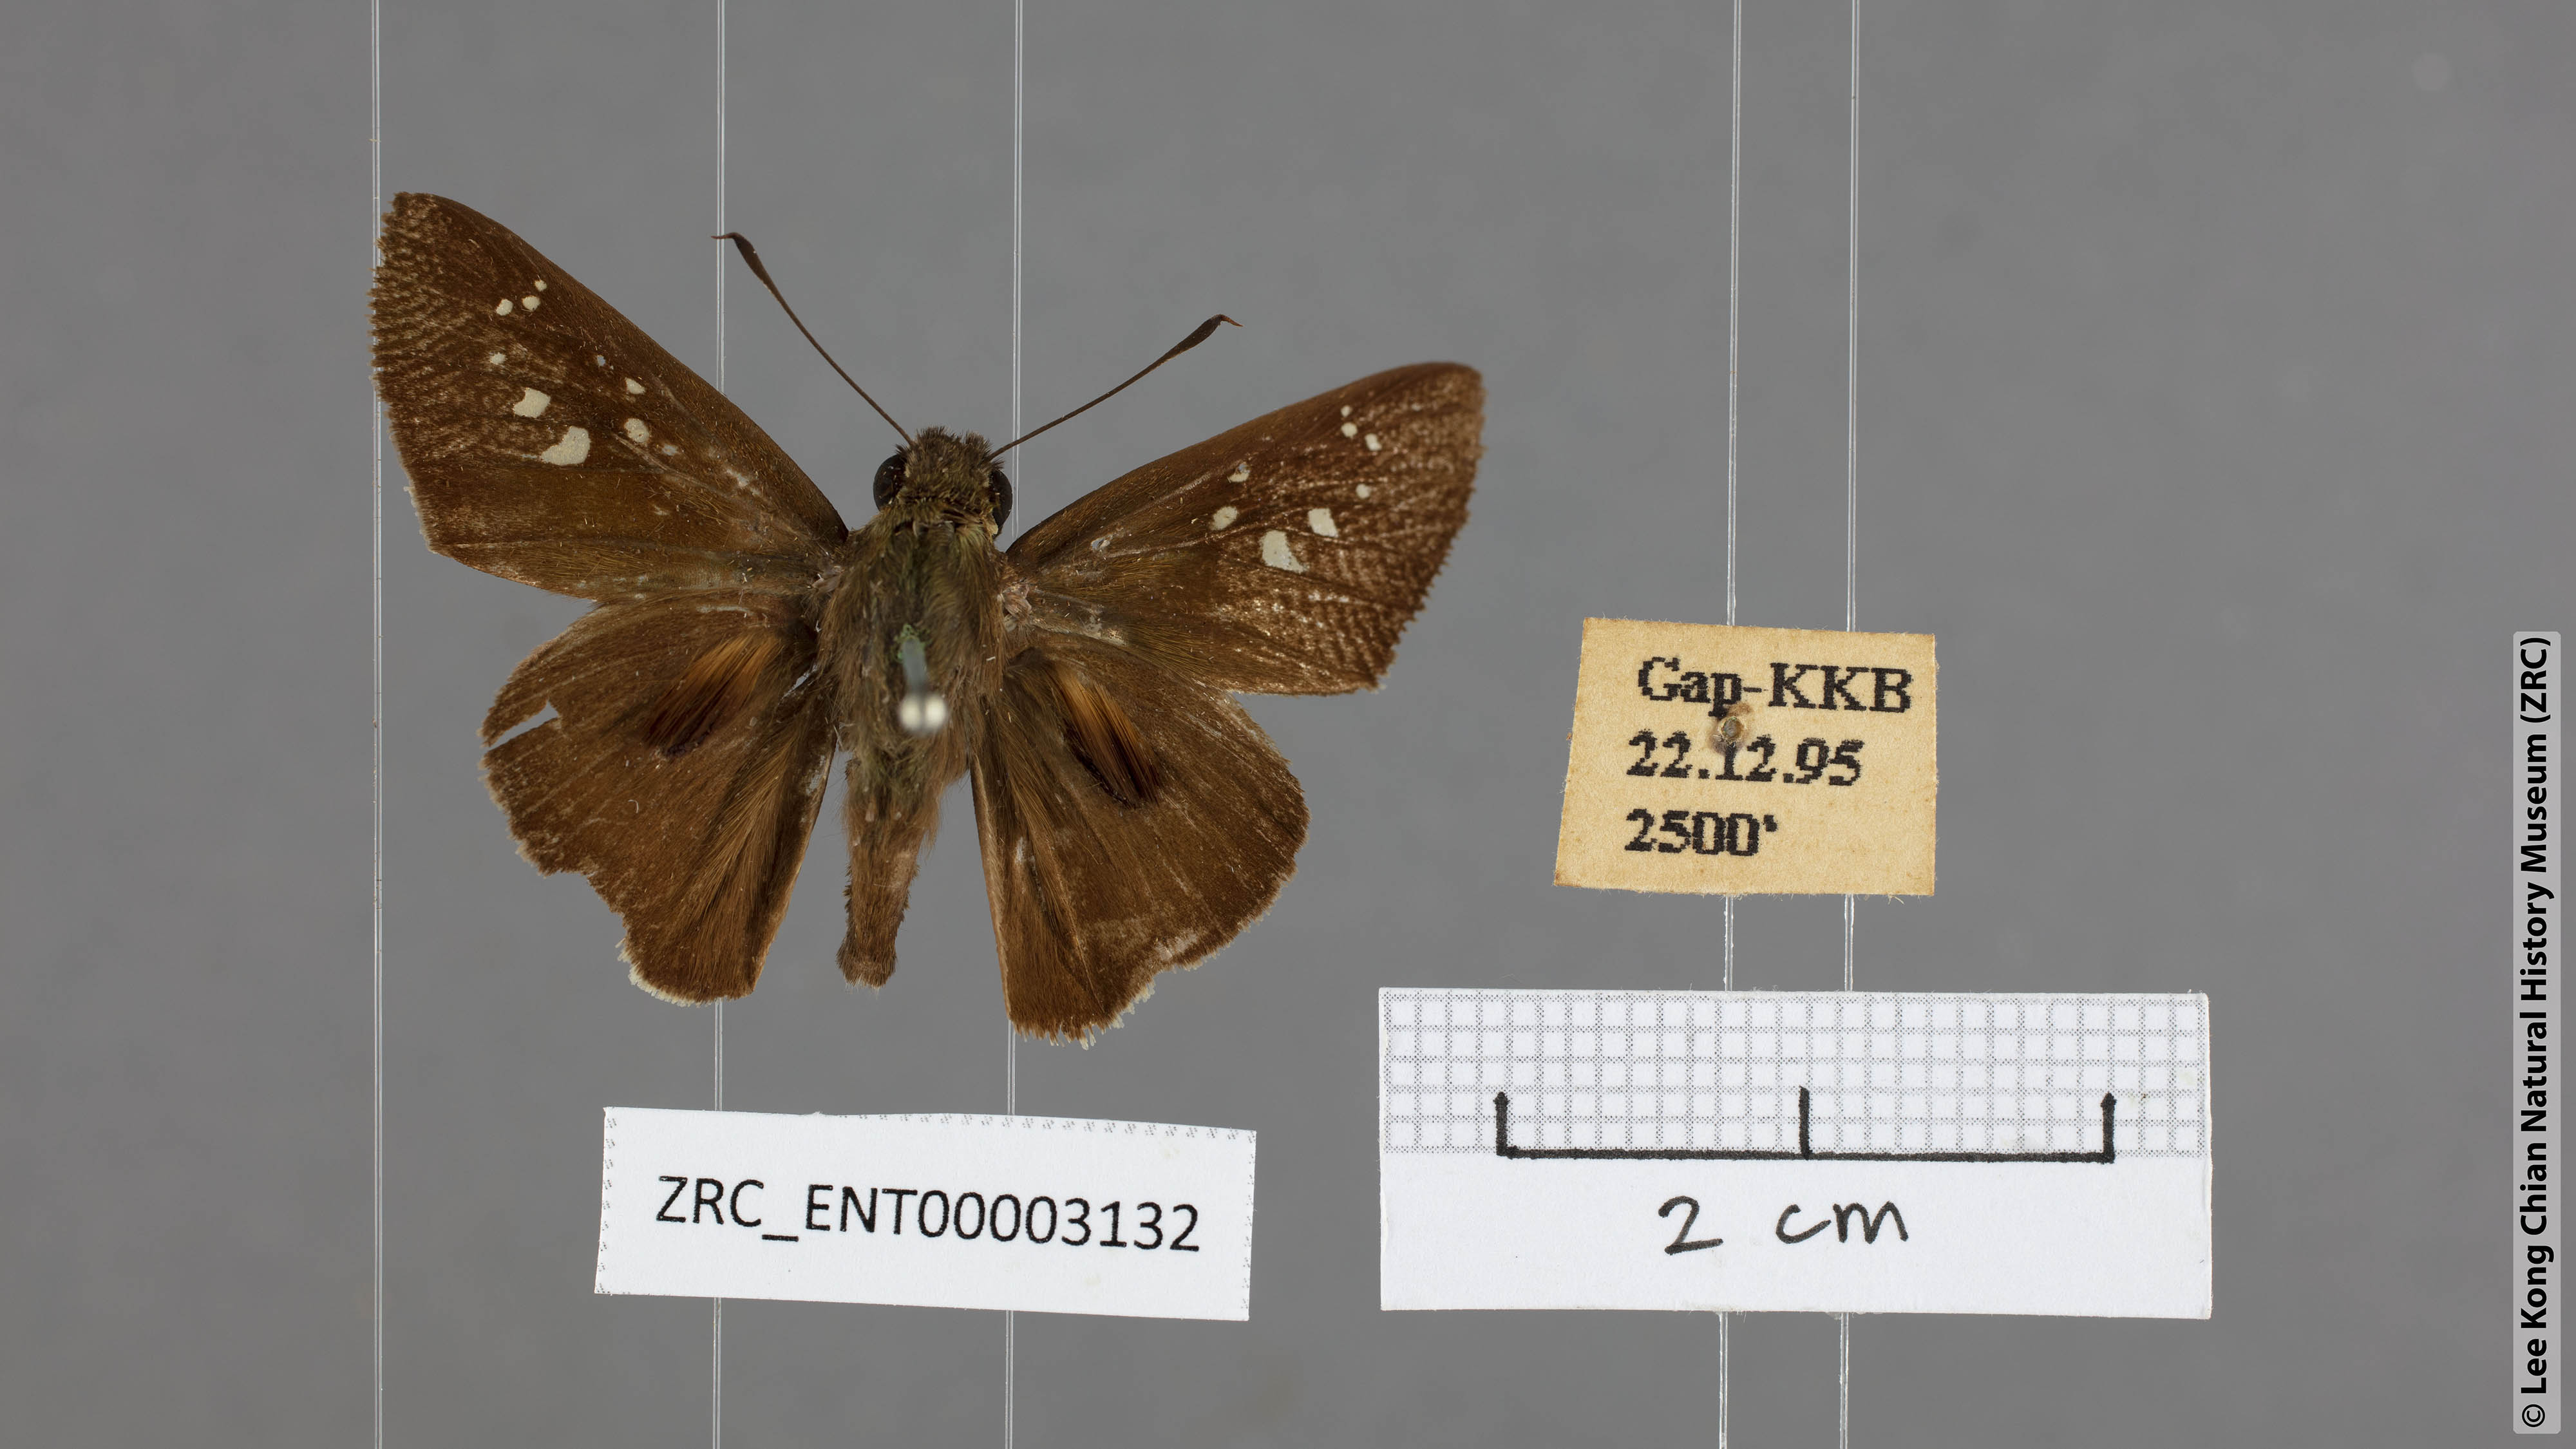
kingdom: Animalia
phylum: Arthropoda
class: Insecta
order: Lepidoptera
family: Hesperiidae
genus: Baoris
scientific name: Baoris farri
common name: Paintbrush swift
